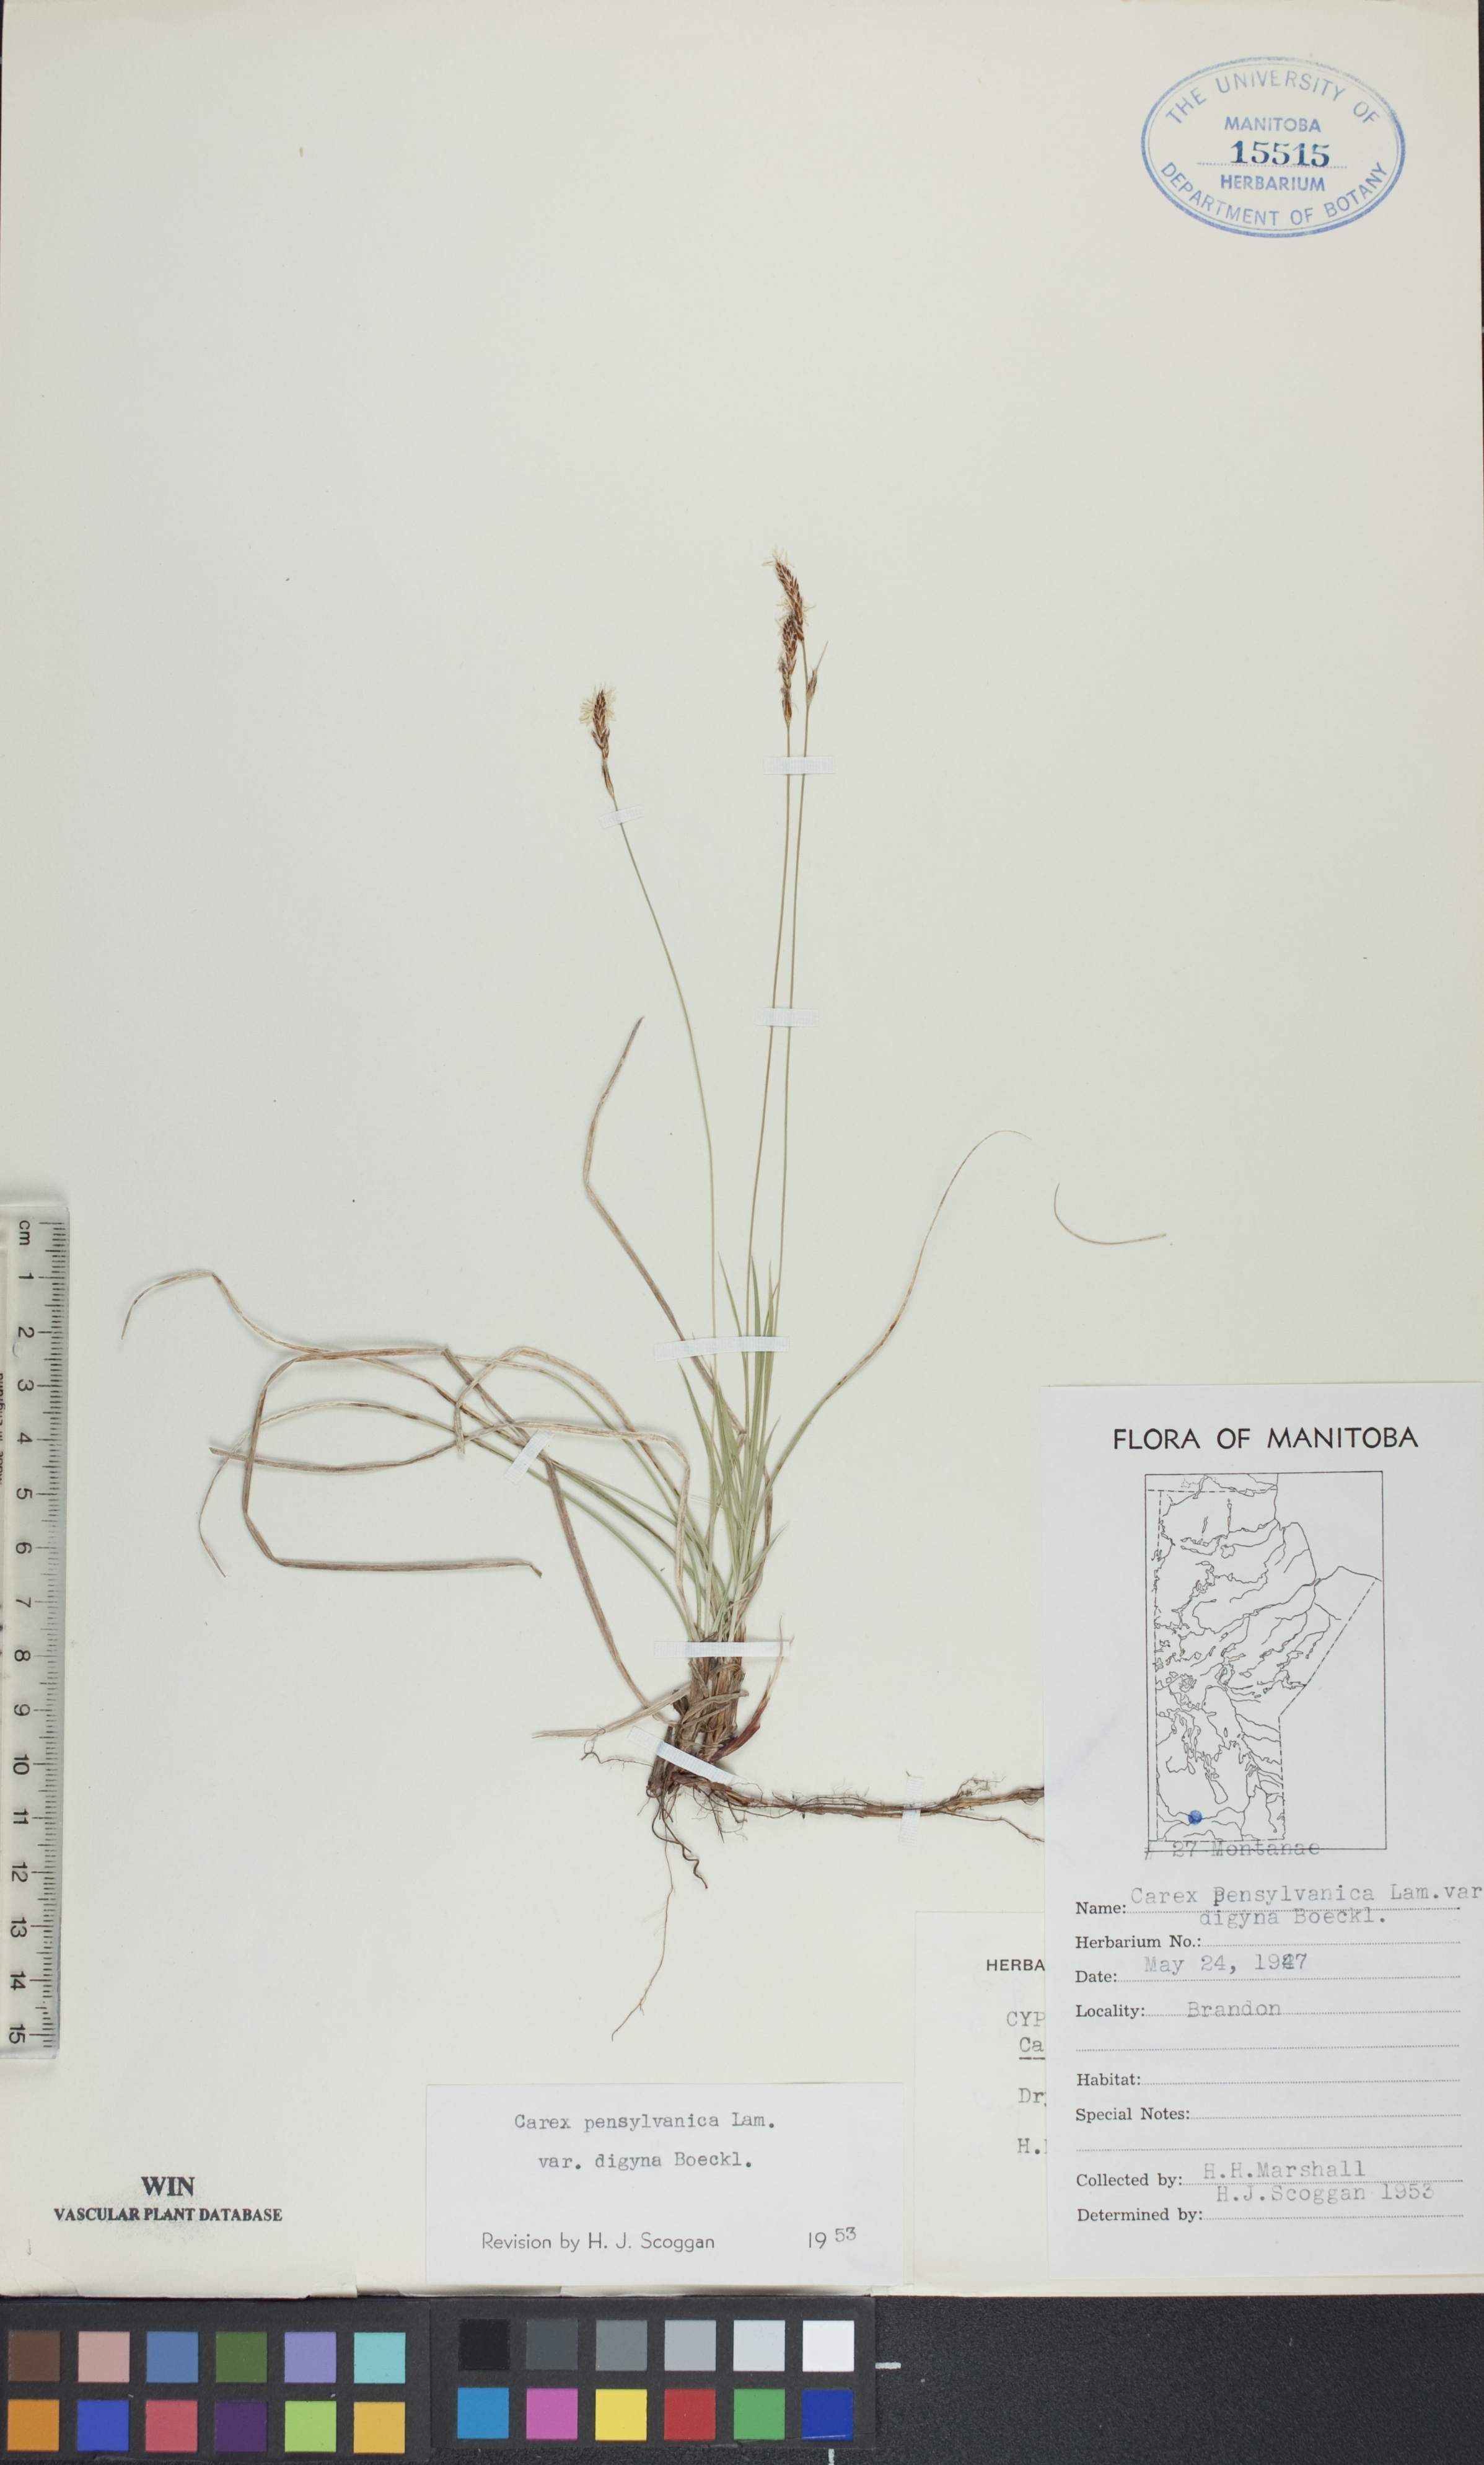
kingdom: Plantae
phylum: Tracheophyta
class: Liliopsida
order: Poales
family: Cyperaceae
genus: Carex
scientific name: Carex pensylvanica
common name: Common oak sedge
